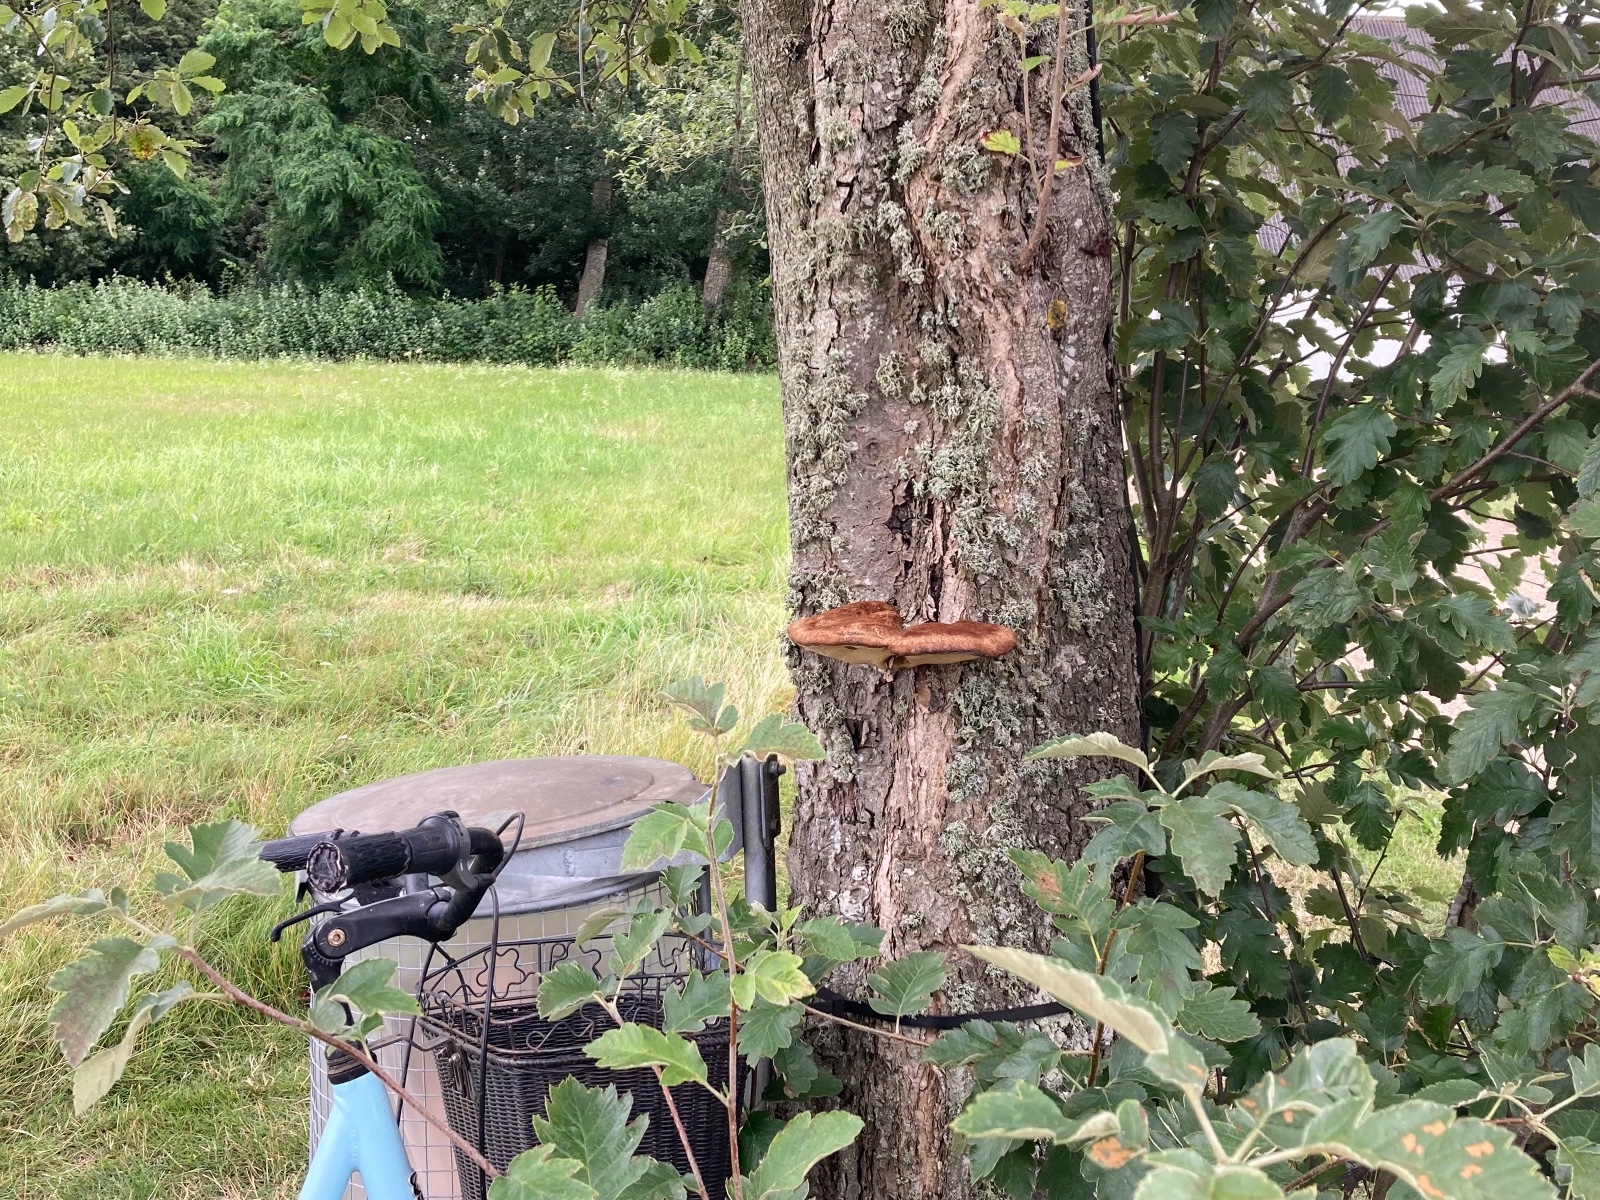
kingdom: Fungi
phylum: Basidiomycota
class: Agaricomycetes
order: Hymenochaetales
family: Hymenochaetaceae
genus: Inonotus
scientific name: Inonotus hispidus
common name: børstehåret spejlporesvamp
